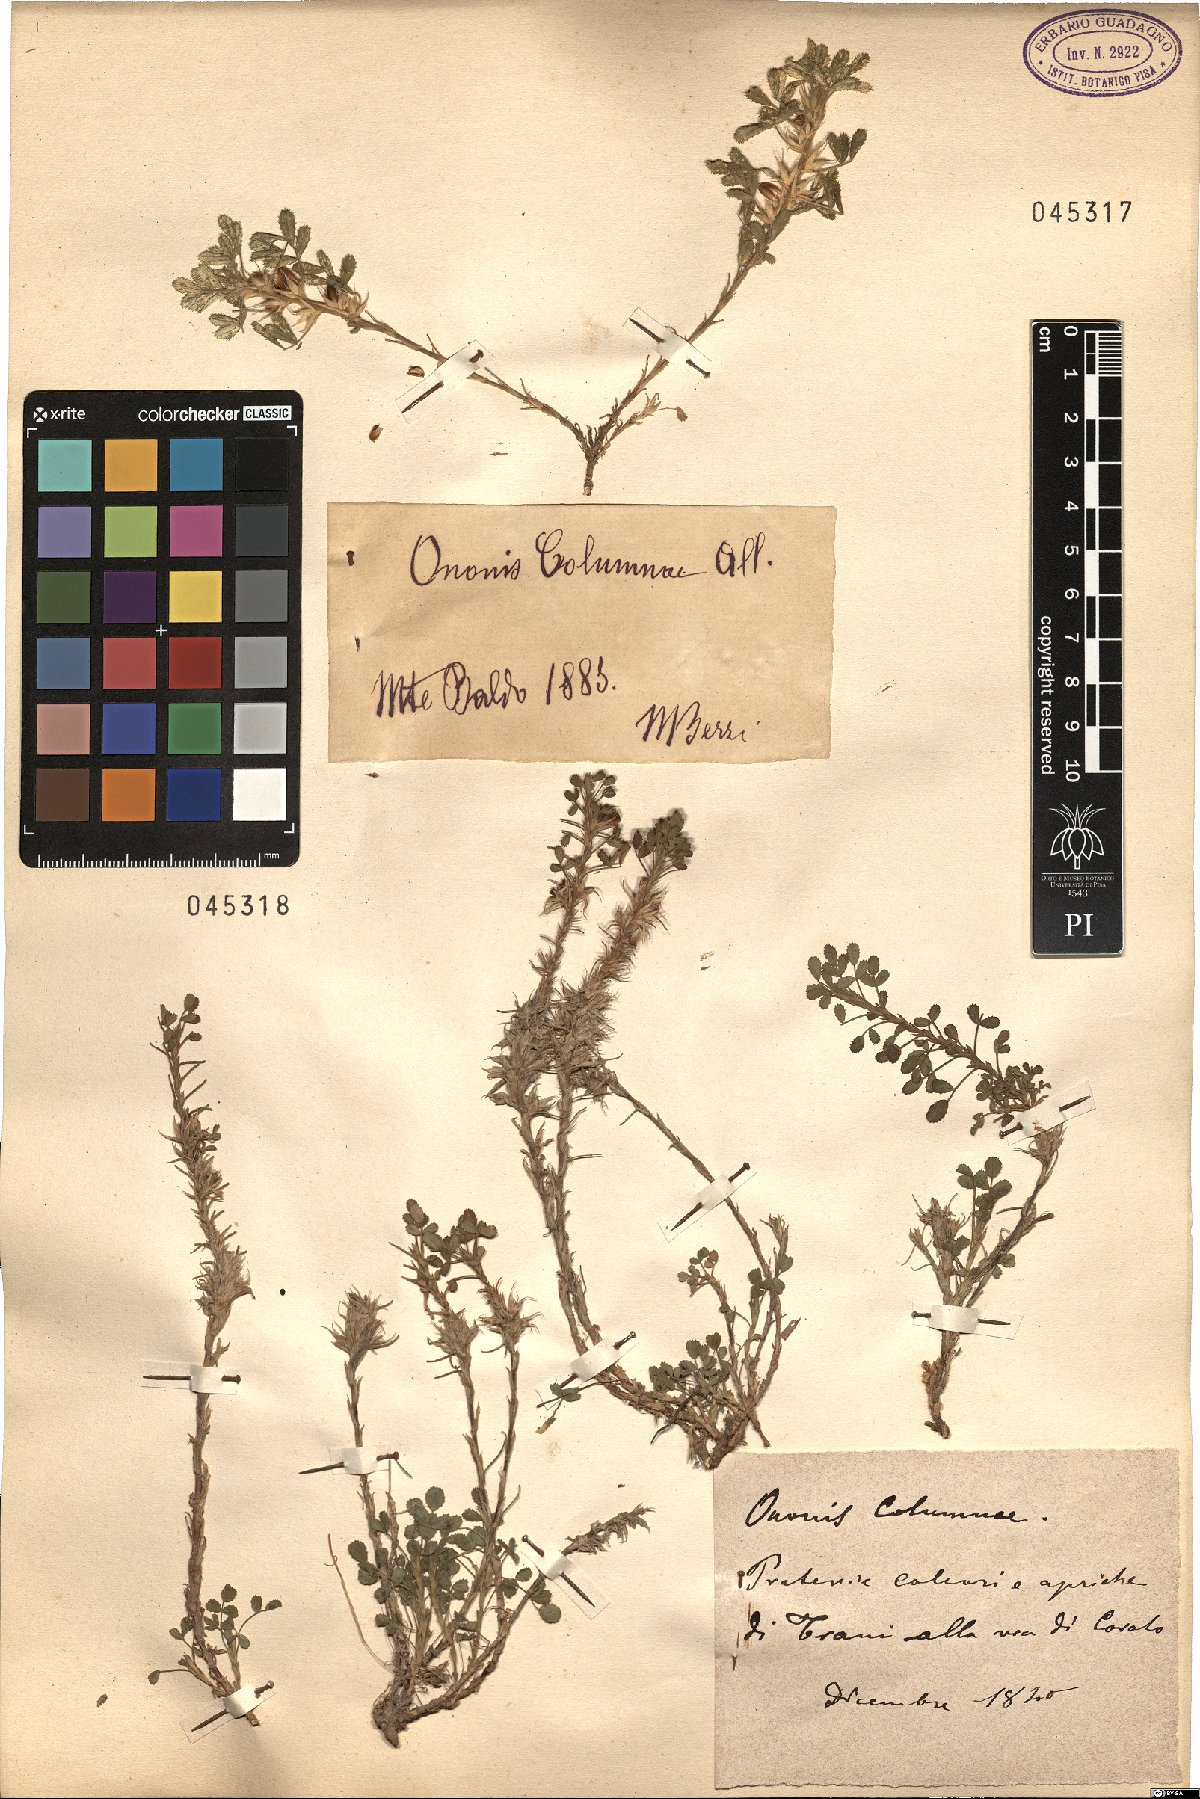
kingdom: Plantae
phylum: Tracheophyta
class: Magnoliopsida
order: Fabales
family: Fabaceae
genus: Ononis
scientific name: Ononis pusilla
